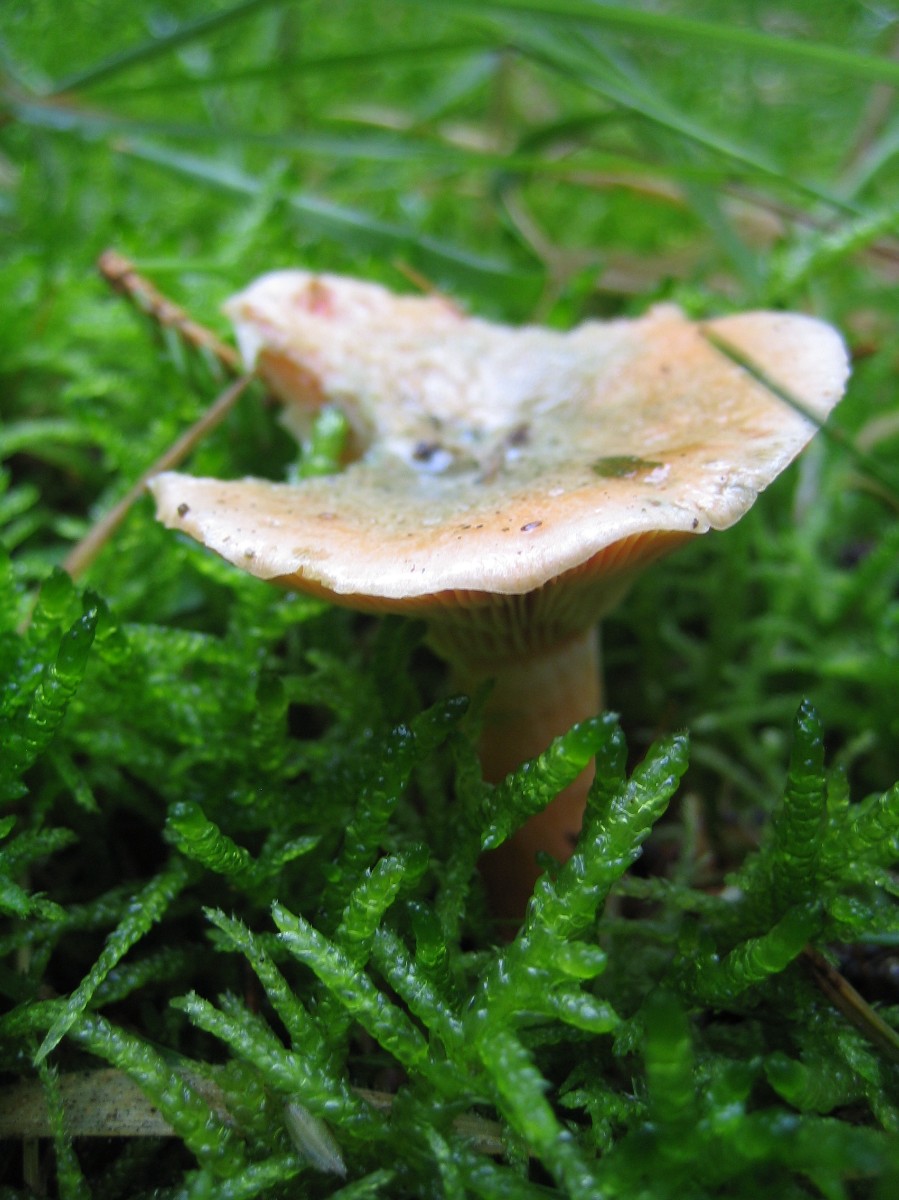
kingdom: Fungi
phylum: Basidiomycota
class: Agaricomycetes
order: Russulales
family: Russulaceae
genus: Lactarius
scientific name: Lactarius deterrimus
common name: gran-mælkehat
